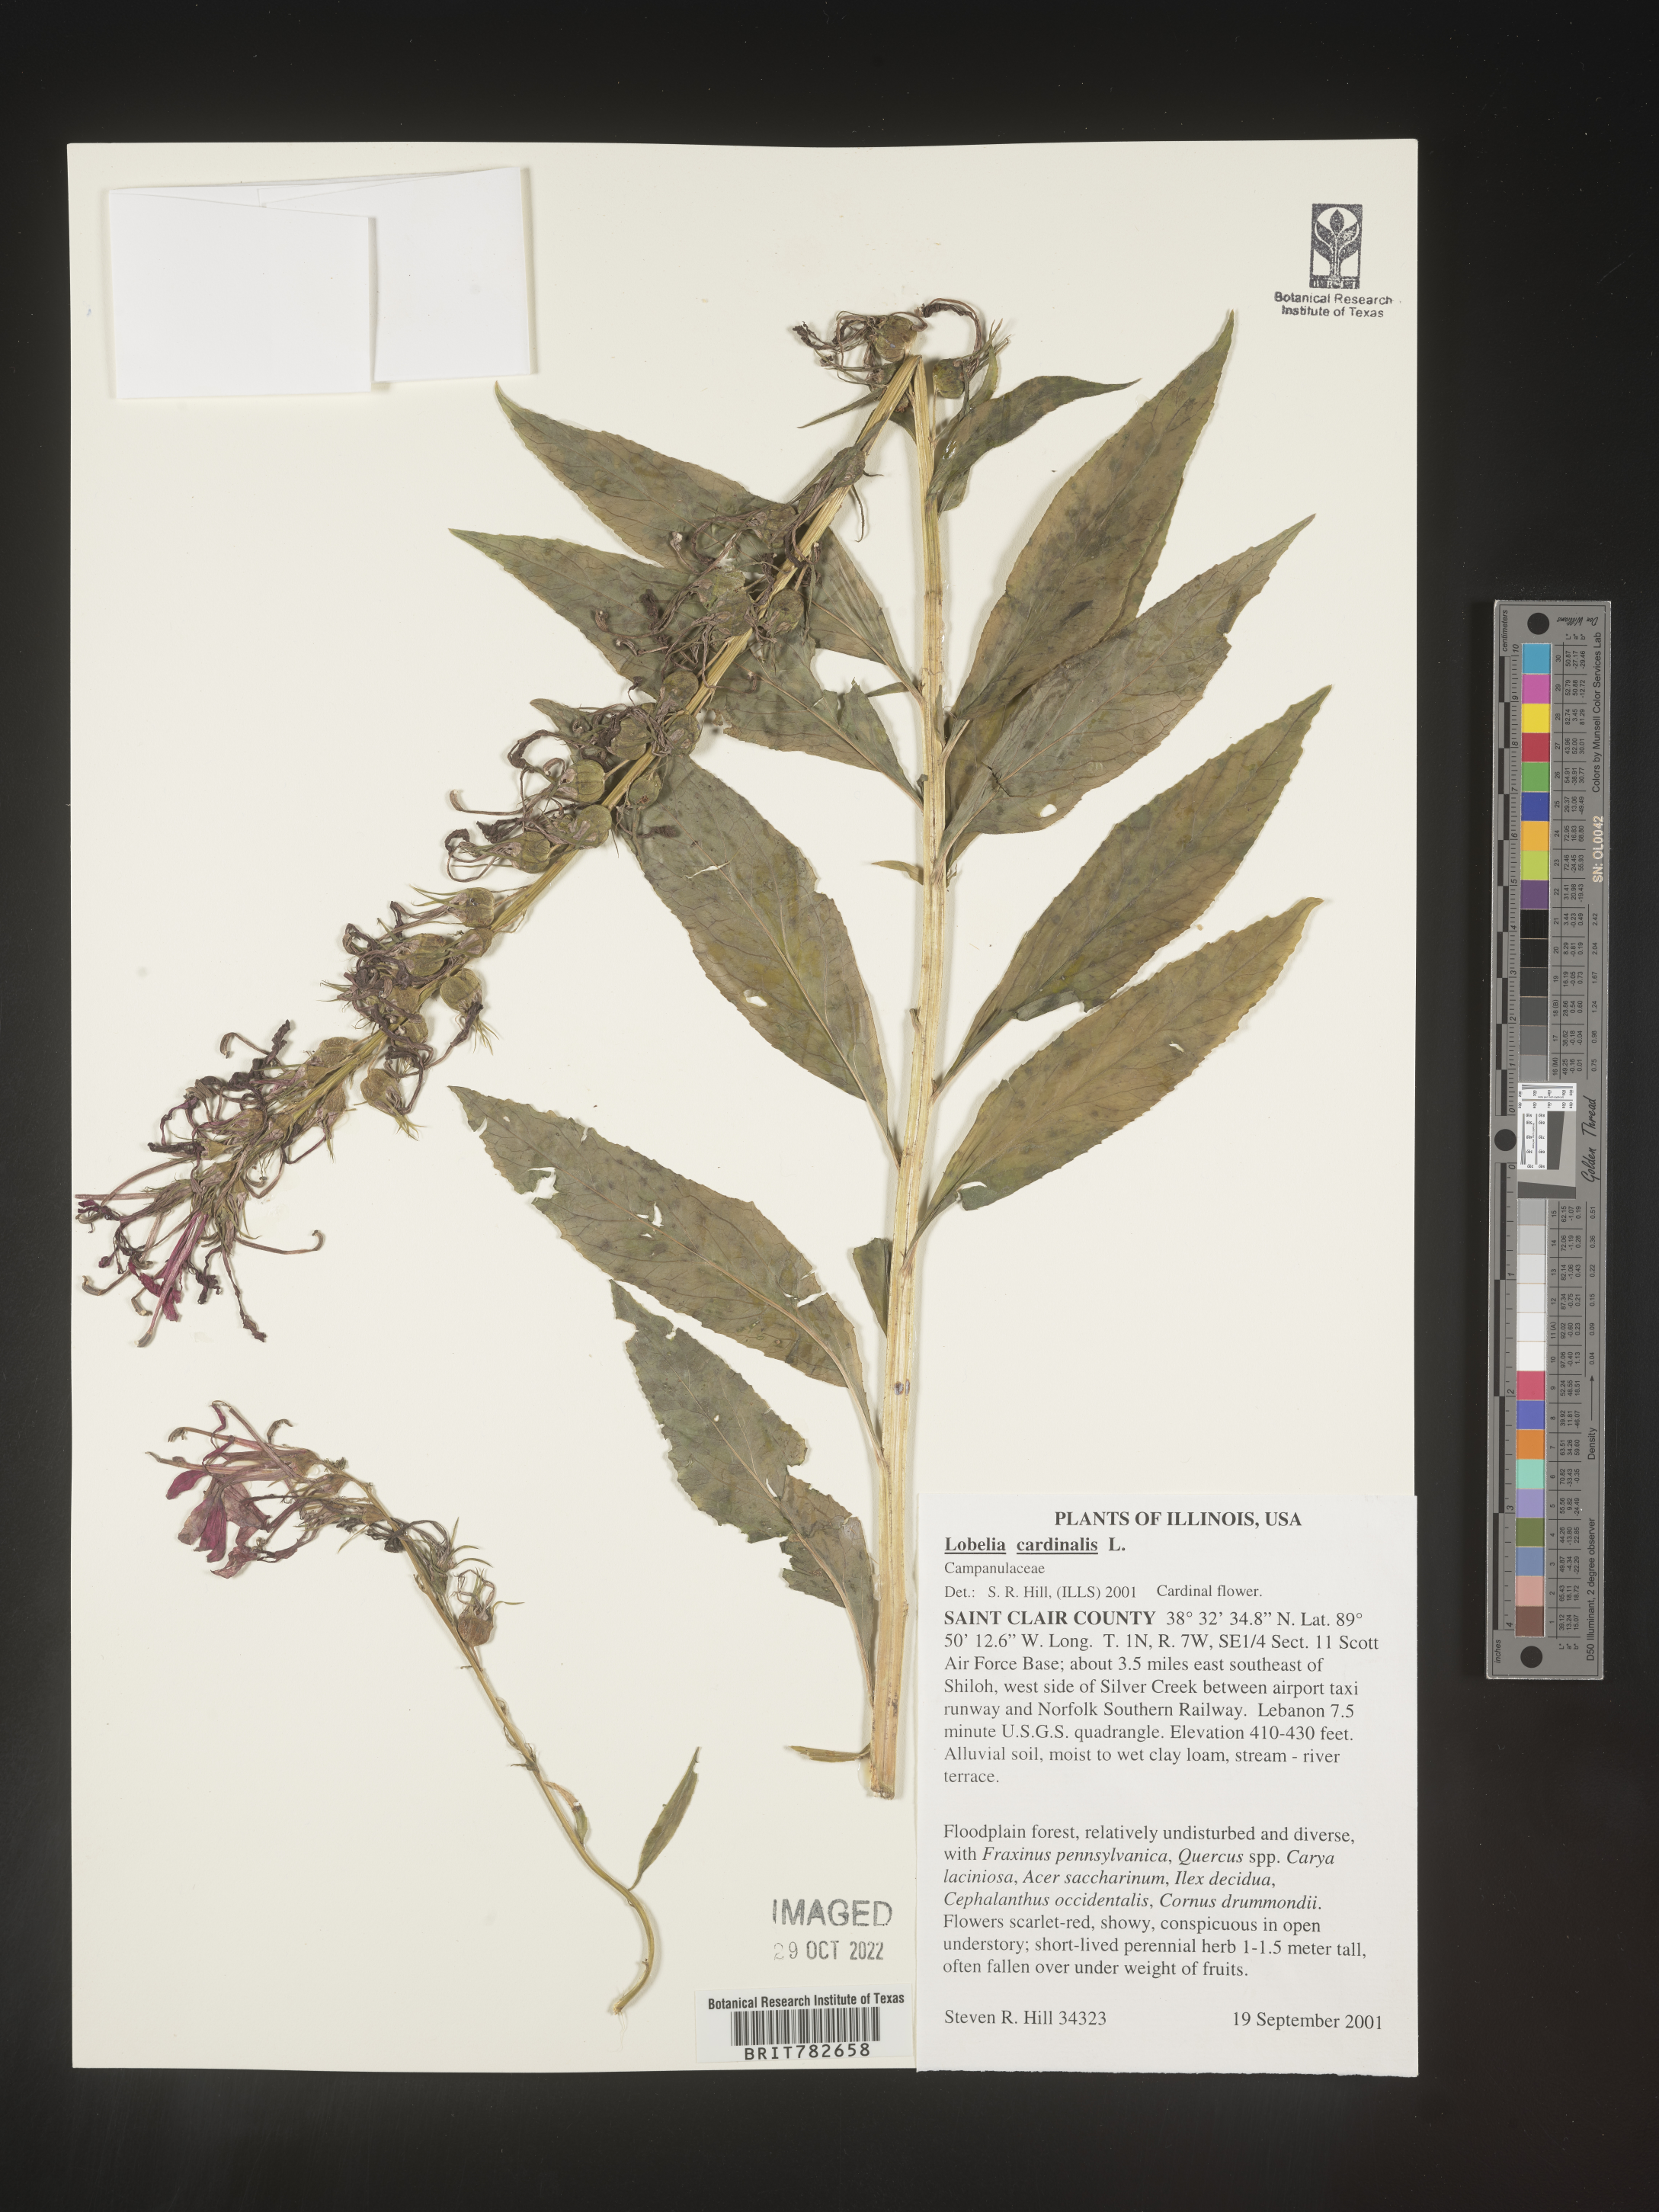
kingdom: Plantae
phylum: Tracheophyta
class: Magnoliopsida
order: Asterales
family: Campanulaceae
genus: Lobelia
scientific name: Lobelia cardinalis
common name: Cardinal flower
